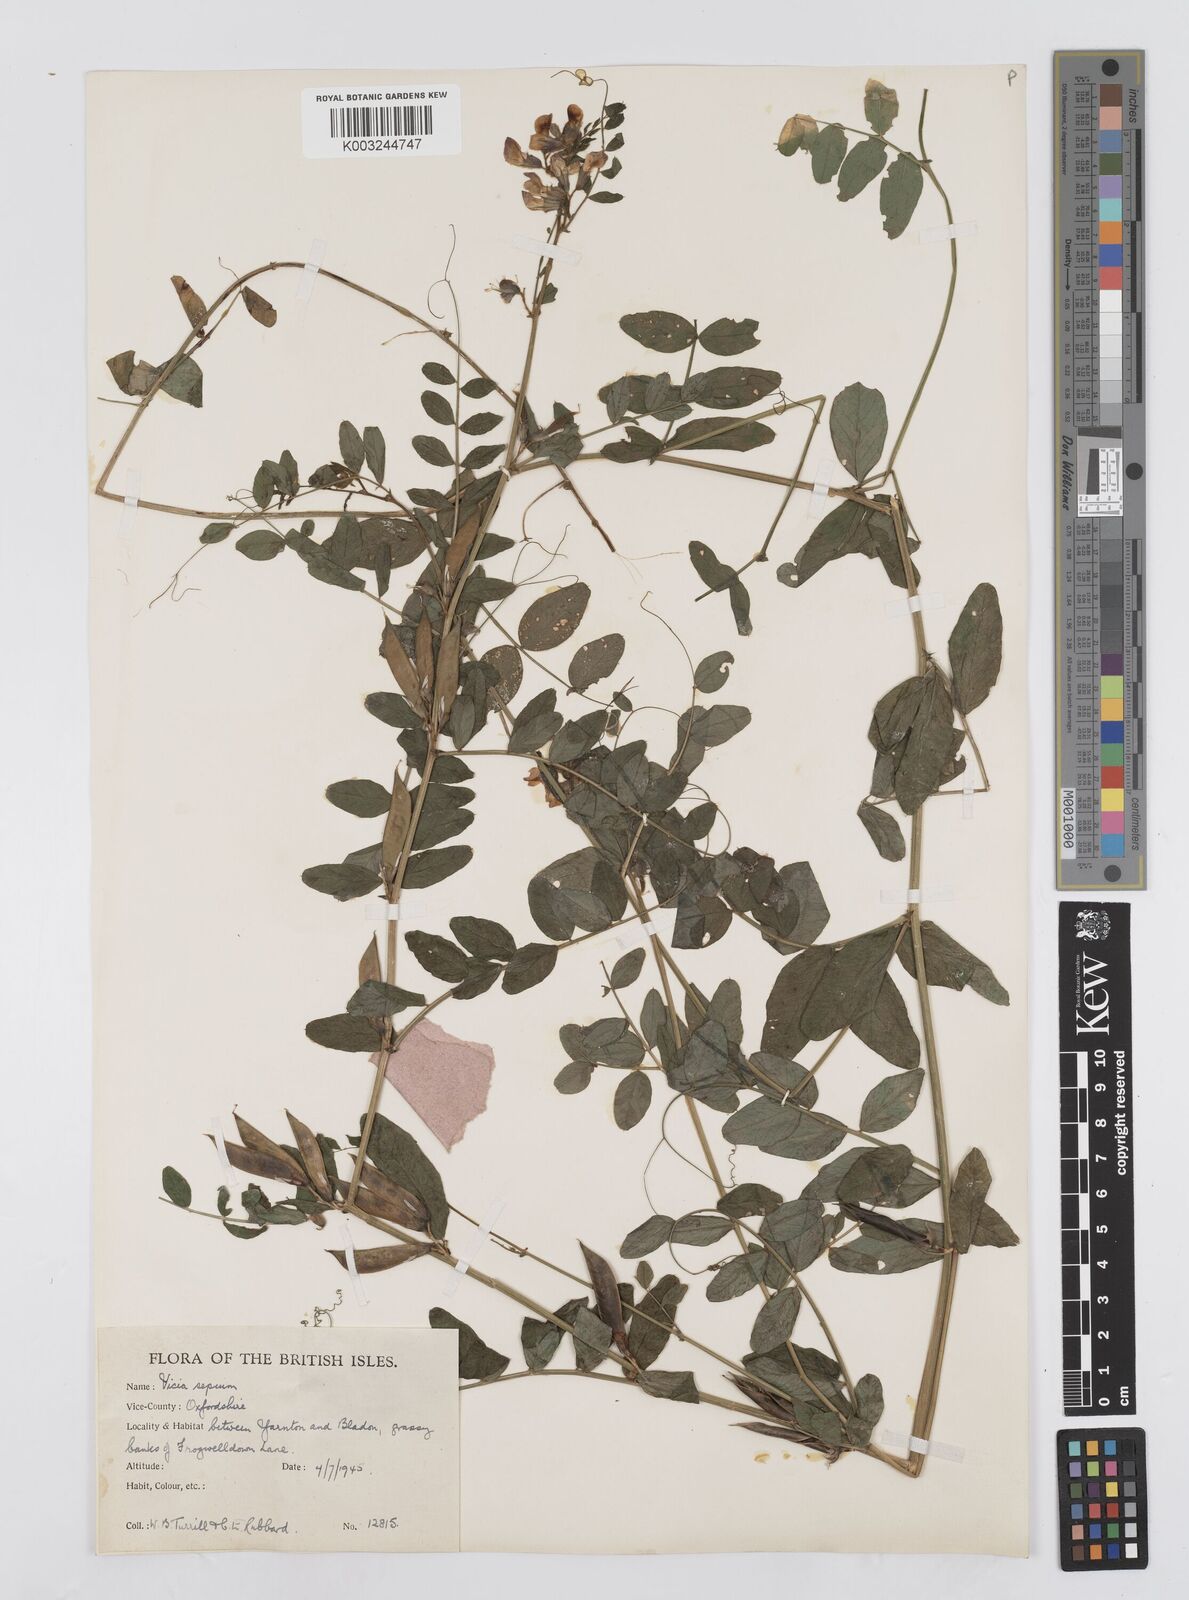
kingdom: Plantae
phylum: Tracheophyta
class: Magnoliopsida
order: Fabales
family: Fabaceae
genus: Vicia
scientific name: Vicia sepium
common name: Bush vetch
